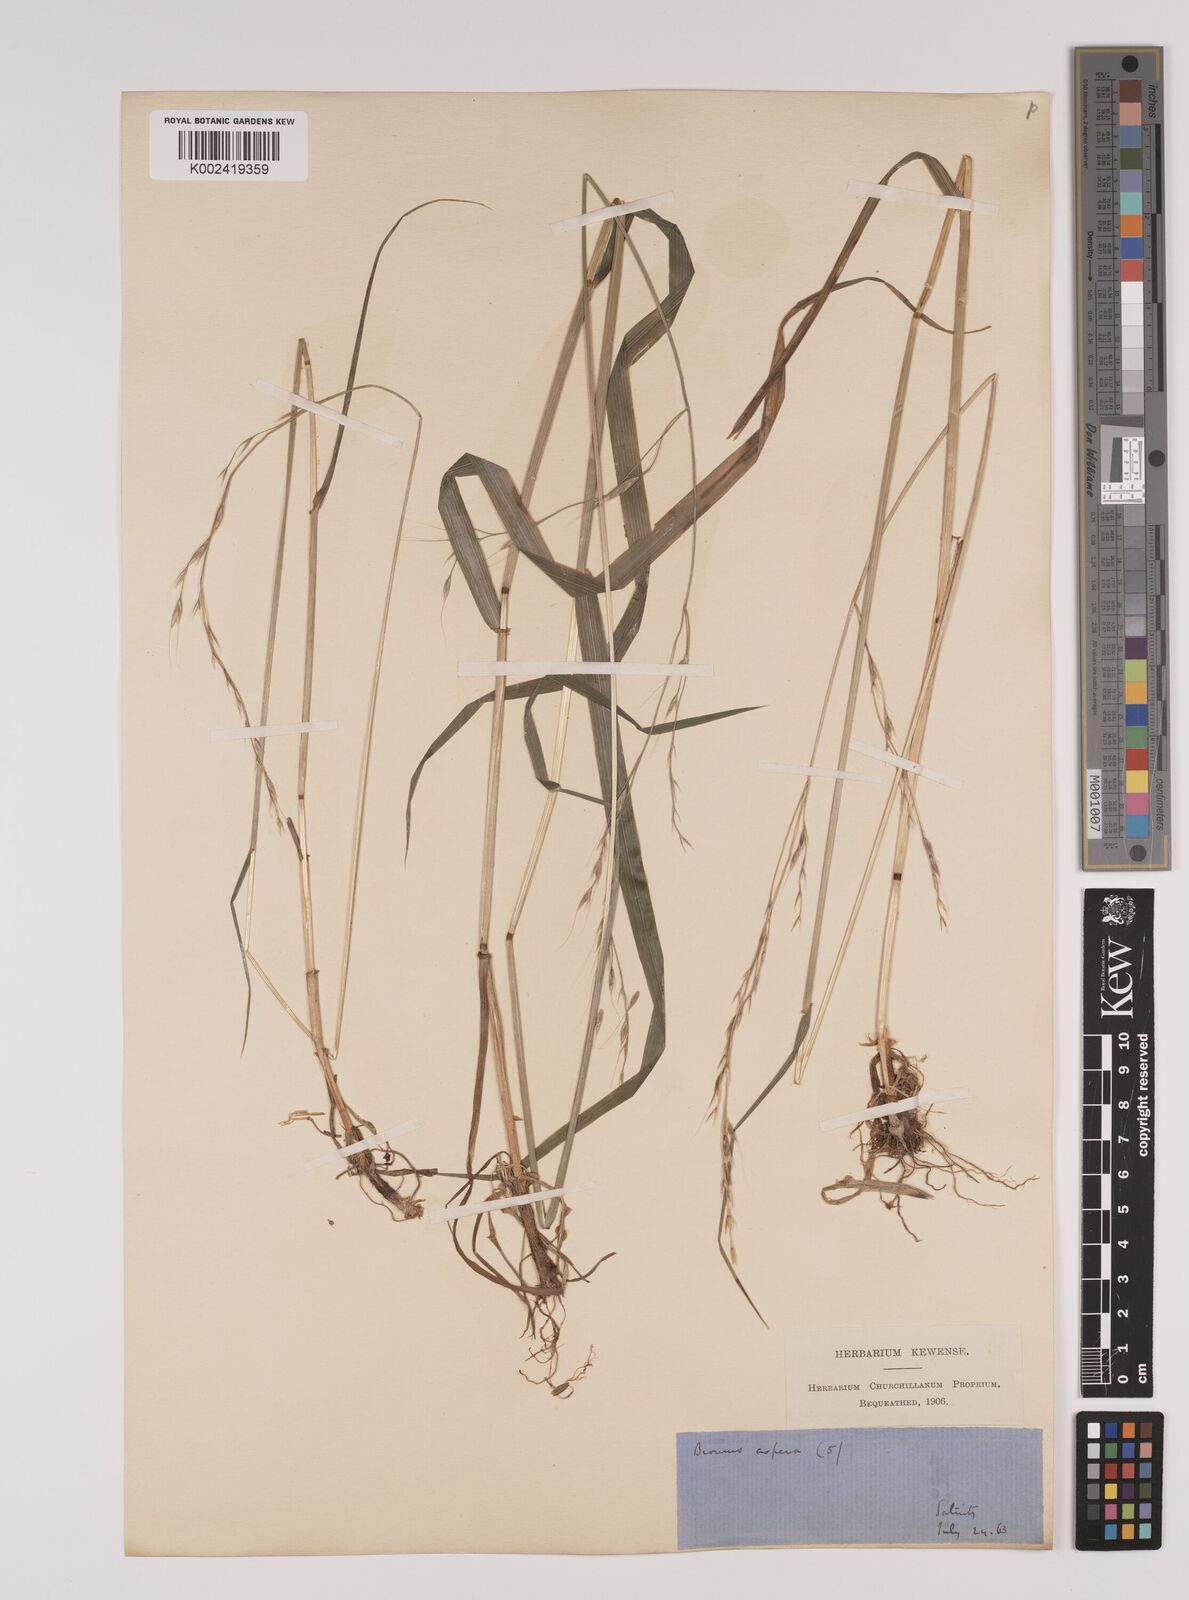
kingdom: Plantae
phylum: Tracheophyta
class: Liliopsida
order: Poales
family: Poaceae
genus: Lolium
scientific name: Lolium giganteum
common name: Giant fescue
